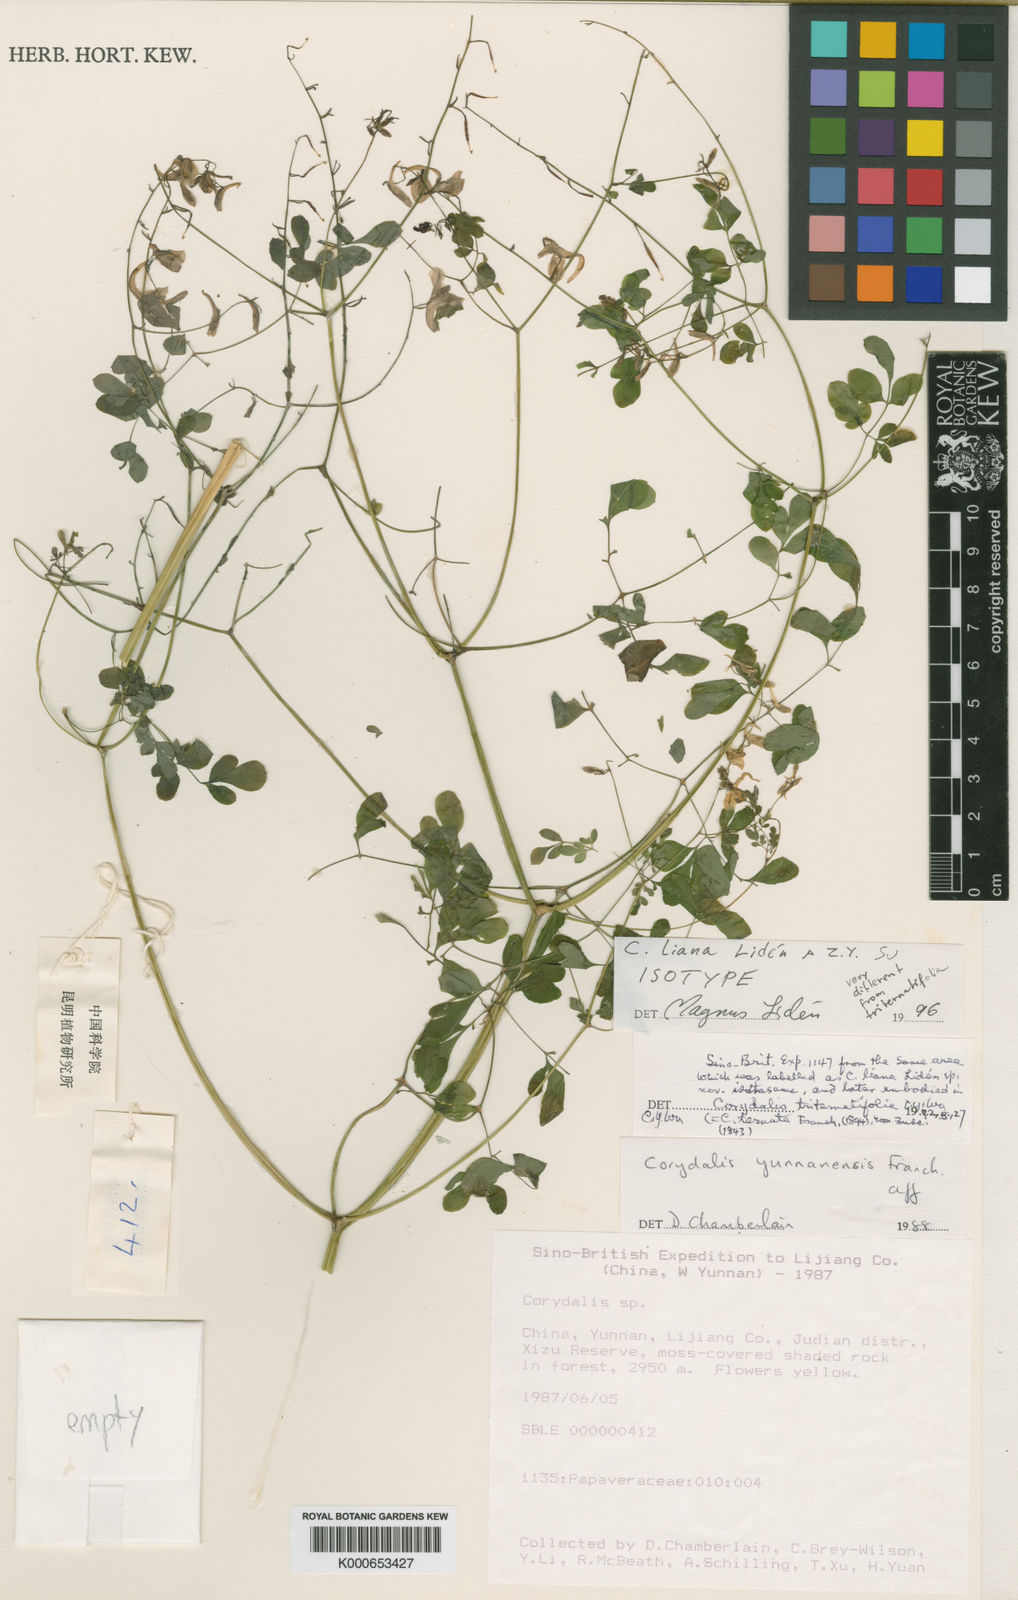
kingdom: Plantae
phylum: Tracheophyta
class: Magnoliopsida
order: Ranunculales
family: Papaveraceae
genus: Corydalis
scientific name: Corydalis
